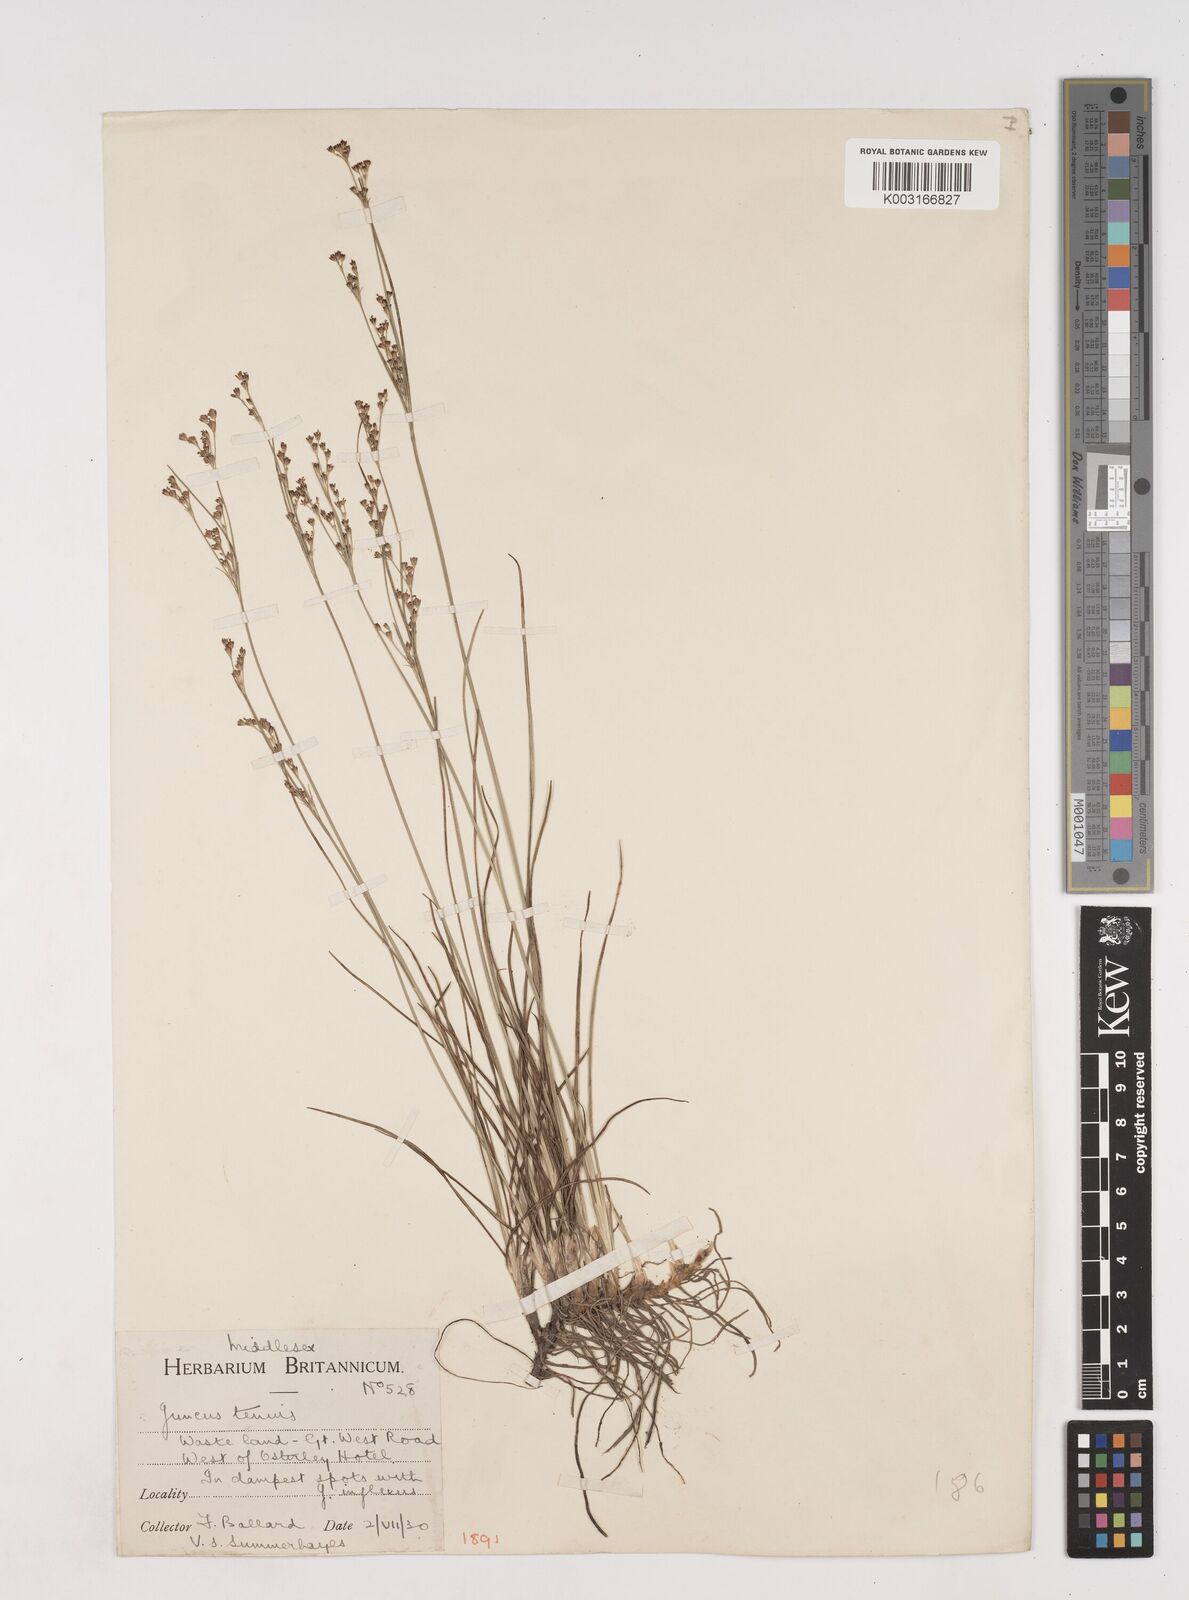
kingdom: Plantae
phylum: Tracheophyta
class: Liliopsida
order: Poales
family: Juncaceae
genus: Juncus
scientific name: Juncus gerardi
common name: Saltmarsh rush
